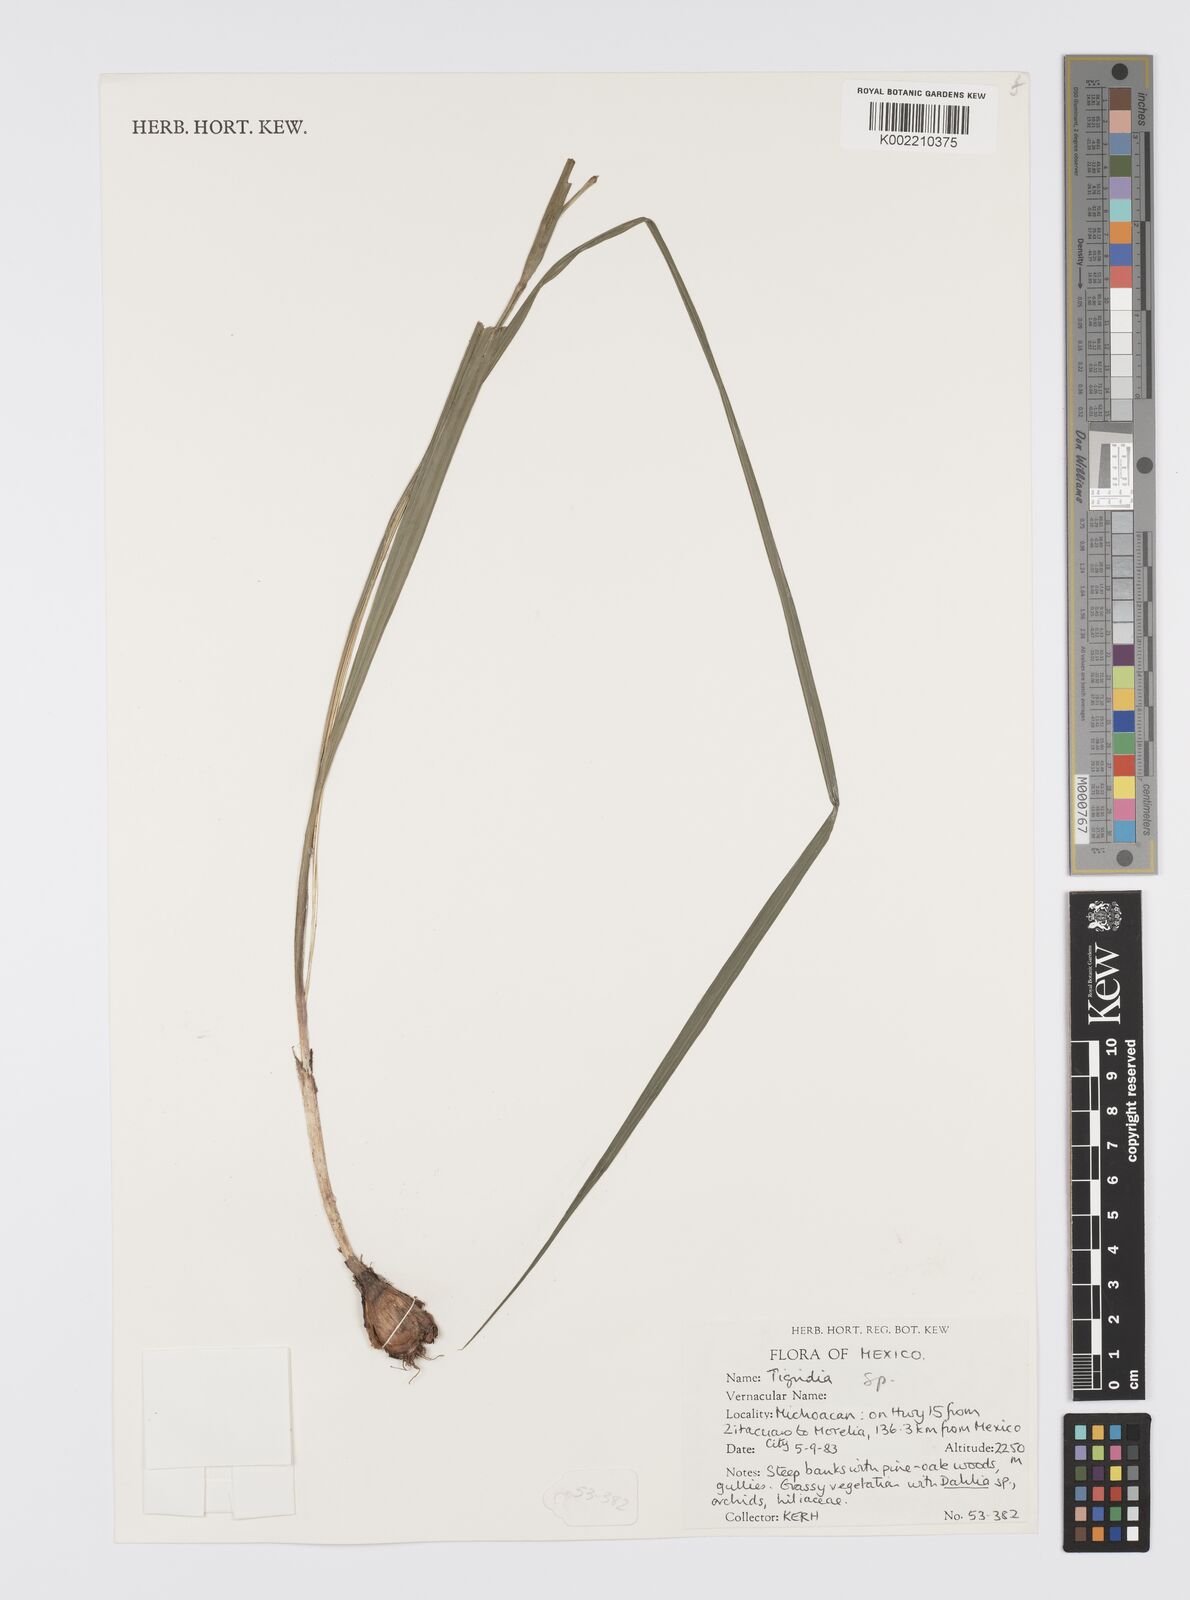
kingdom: Plantae
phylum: Tracheophyta
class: Liliopsida
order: Asparagales
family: Iridaceae
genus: Tigridia
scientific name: Tigridia
